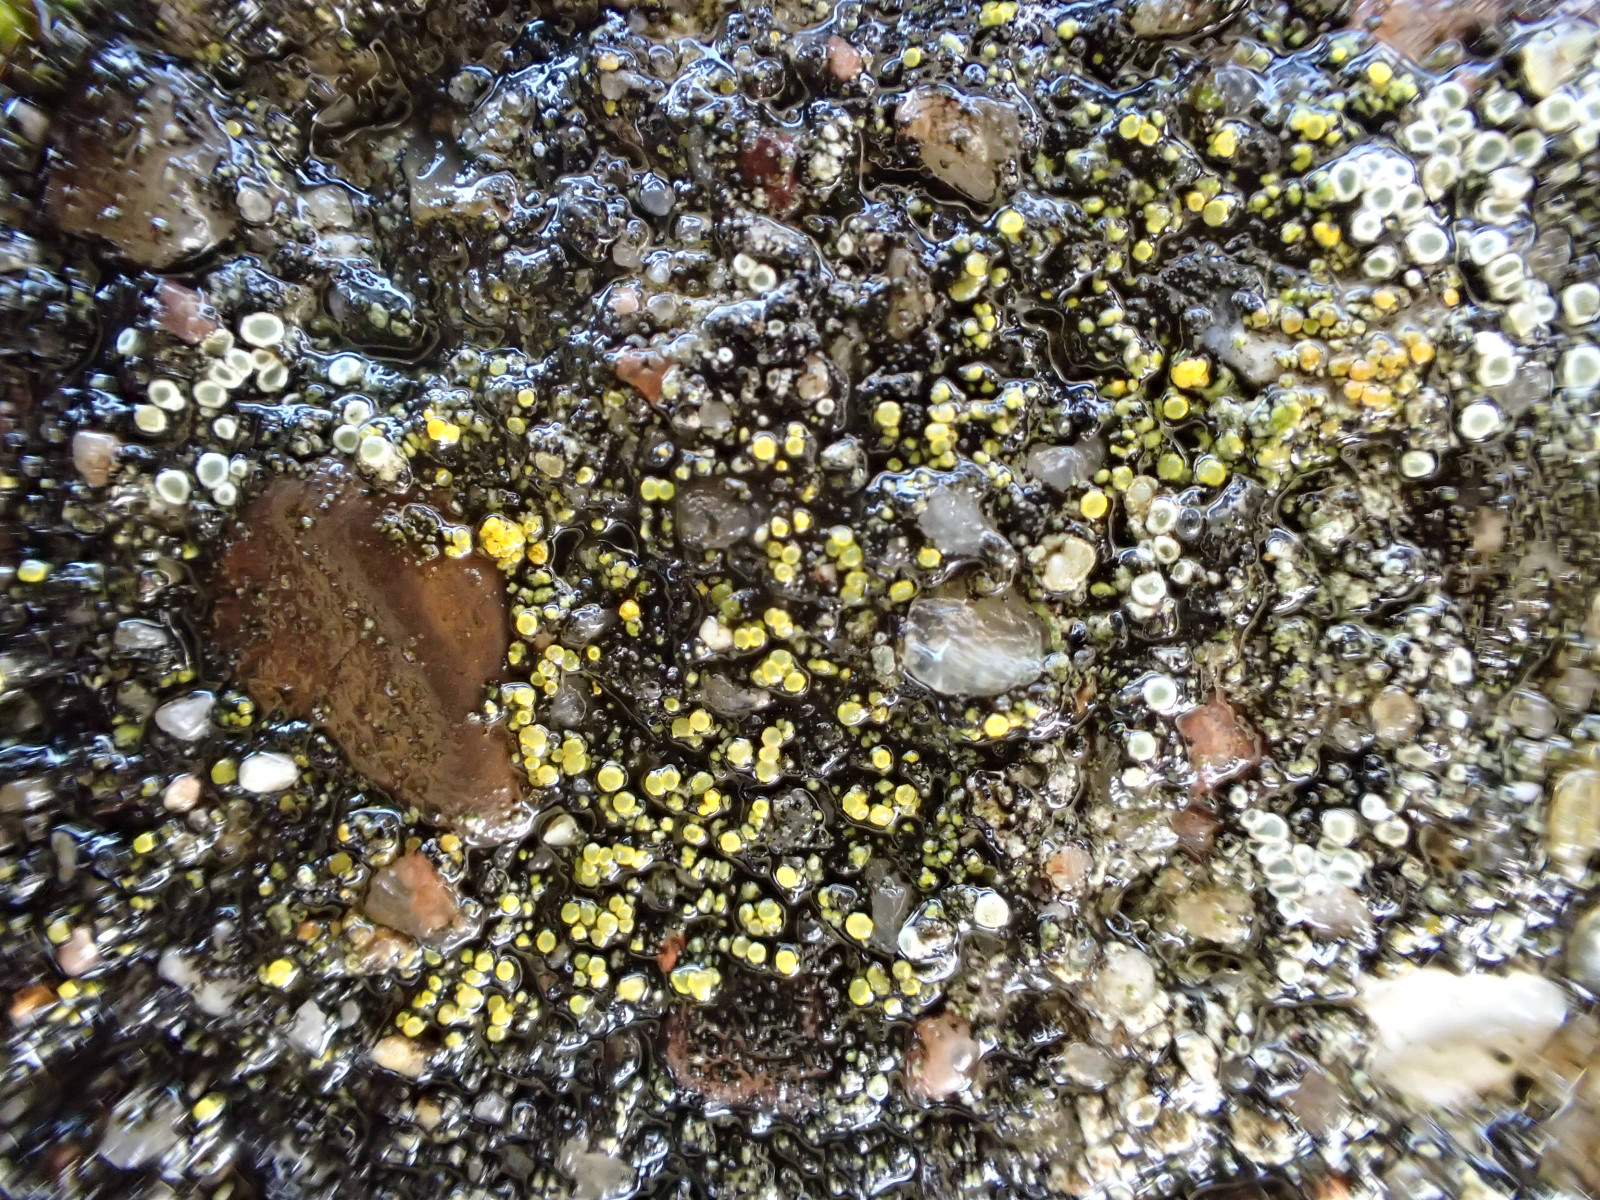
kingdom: Fungi
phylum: Ascomycota
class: Candelariomycetes
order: Candelariales
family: Candelariaceae
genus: Candelariella
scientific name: Candelariella aurella
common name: liden æggeblommelav
